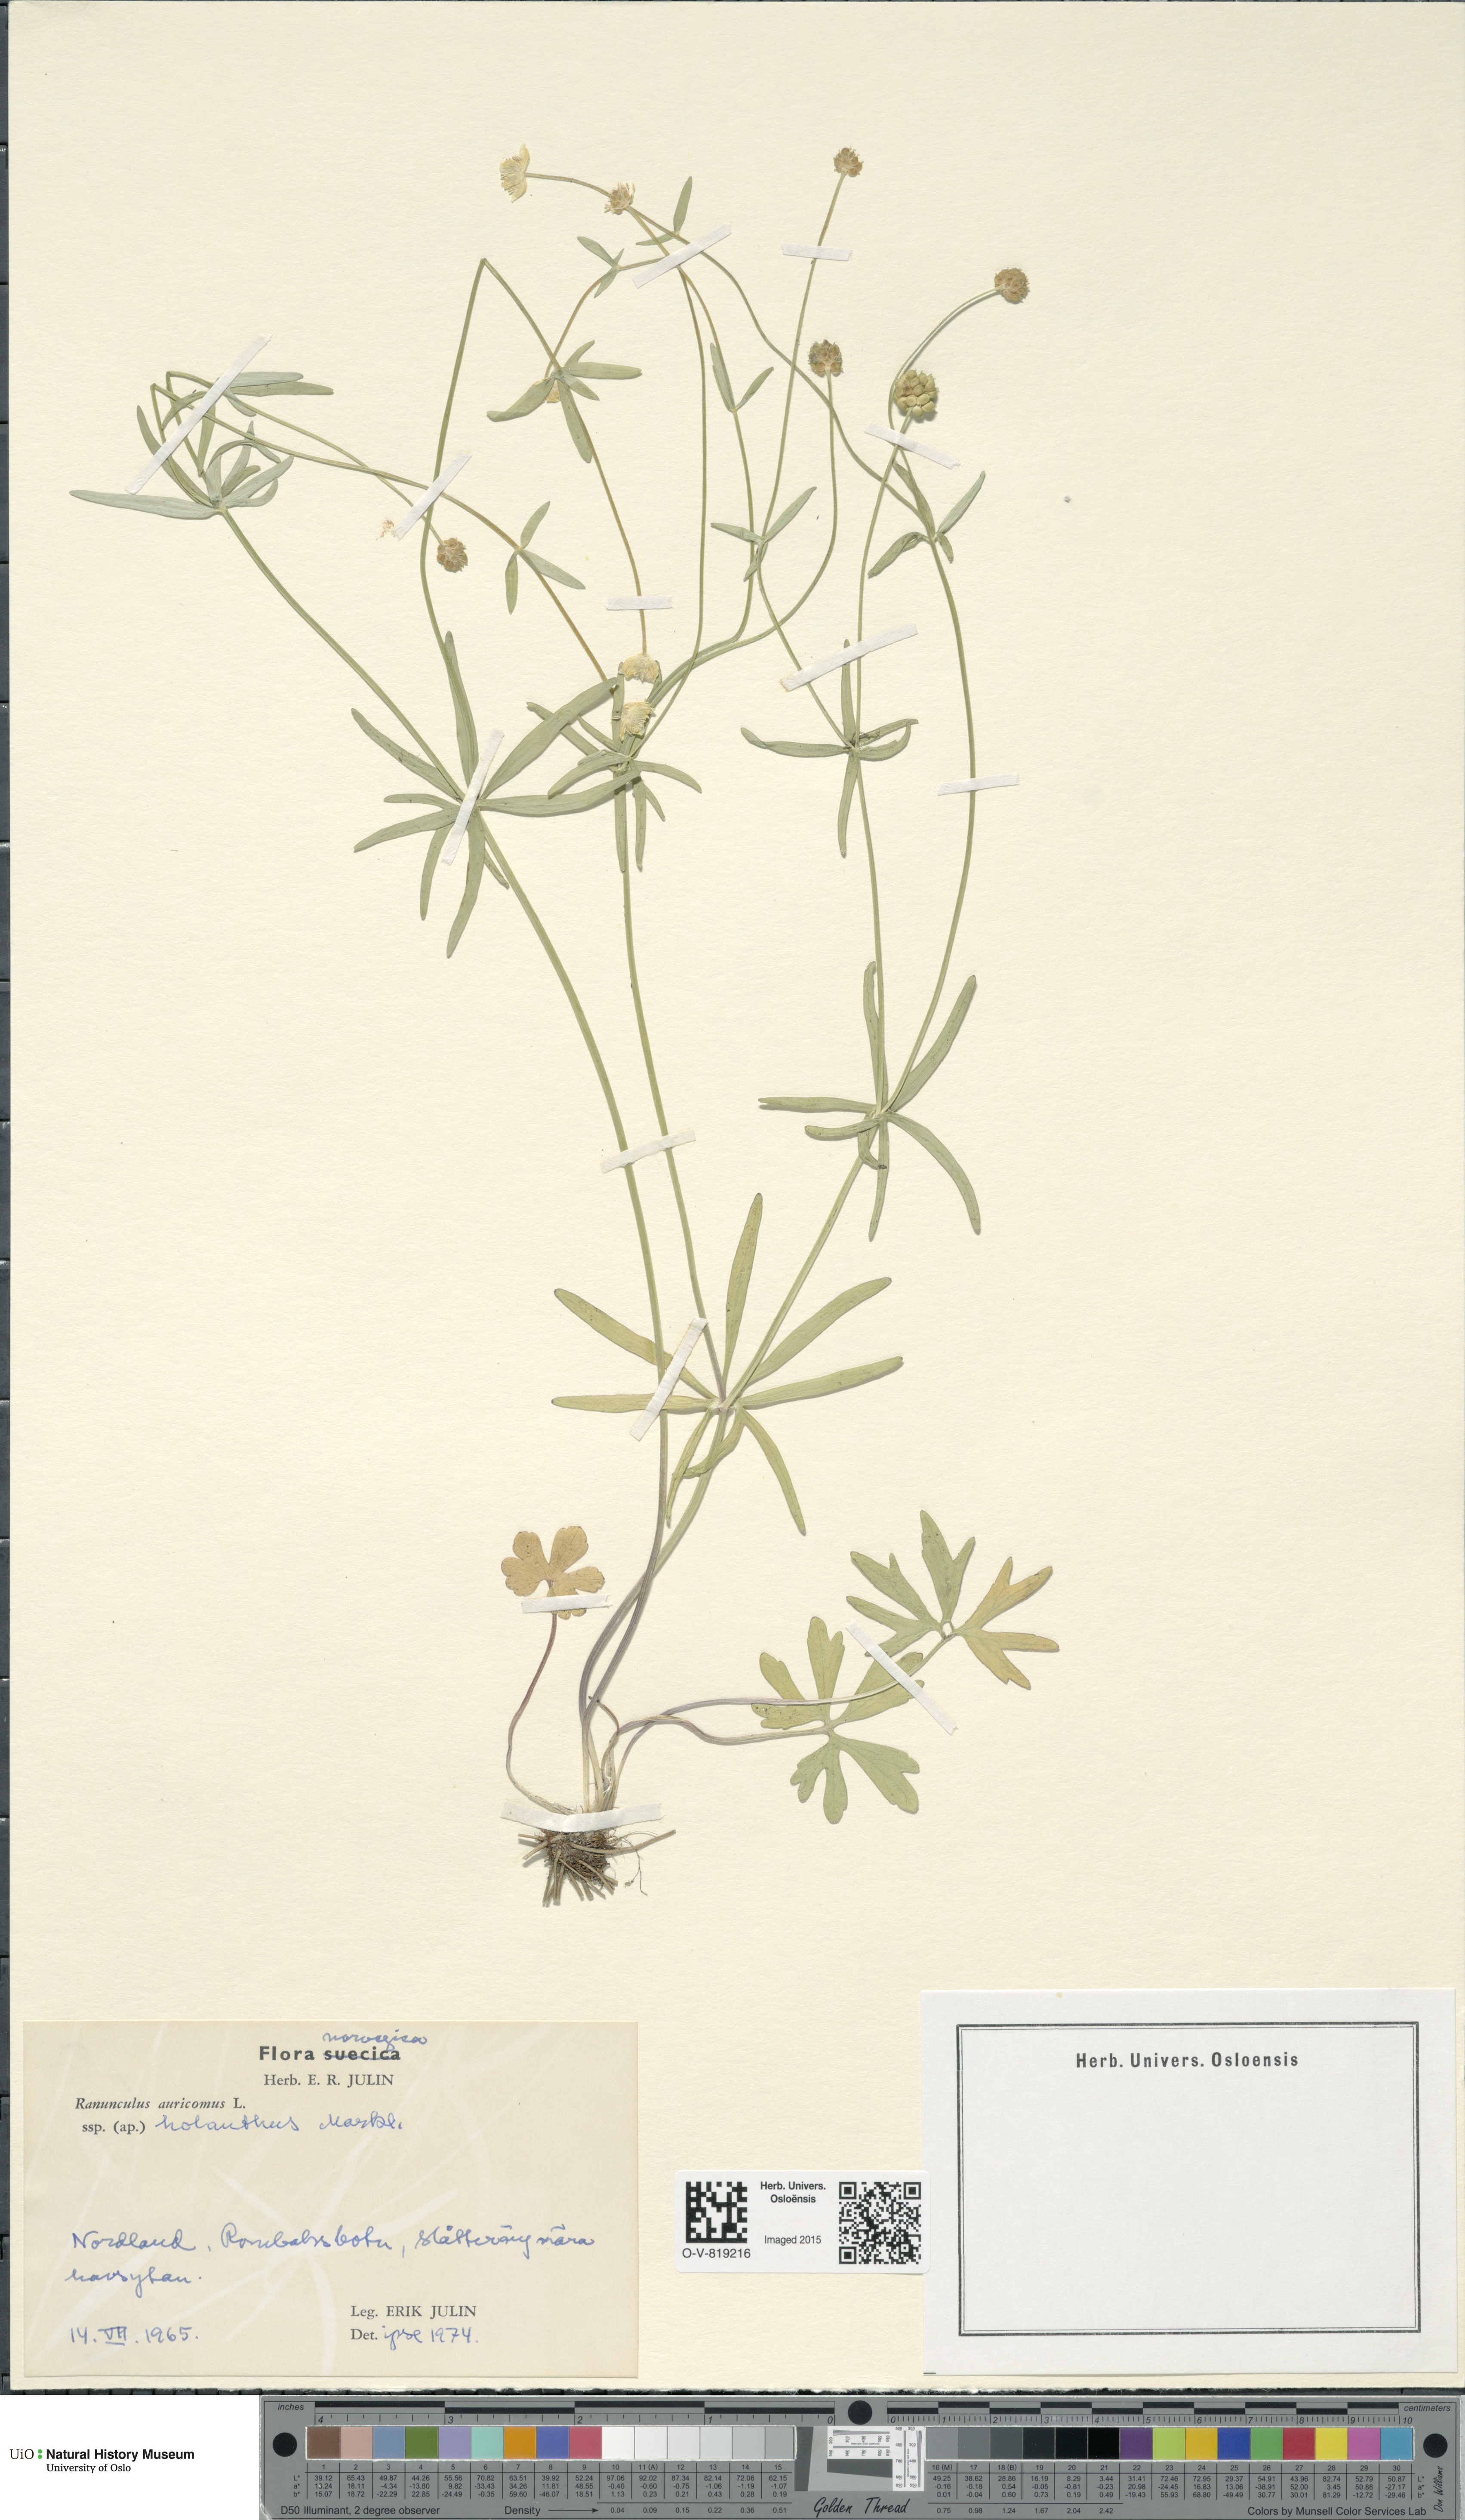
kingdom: Plantae
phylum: Tracheophyta
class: Magnoliopsida
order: Ranunculales
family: Ranunculaceae
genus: Ranunculus
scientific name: Ranunculus holanthus
